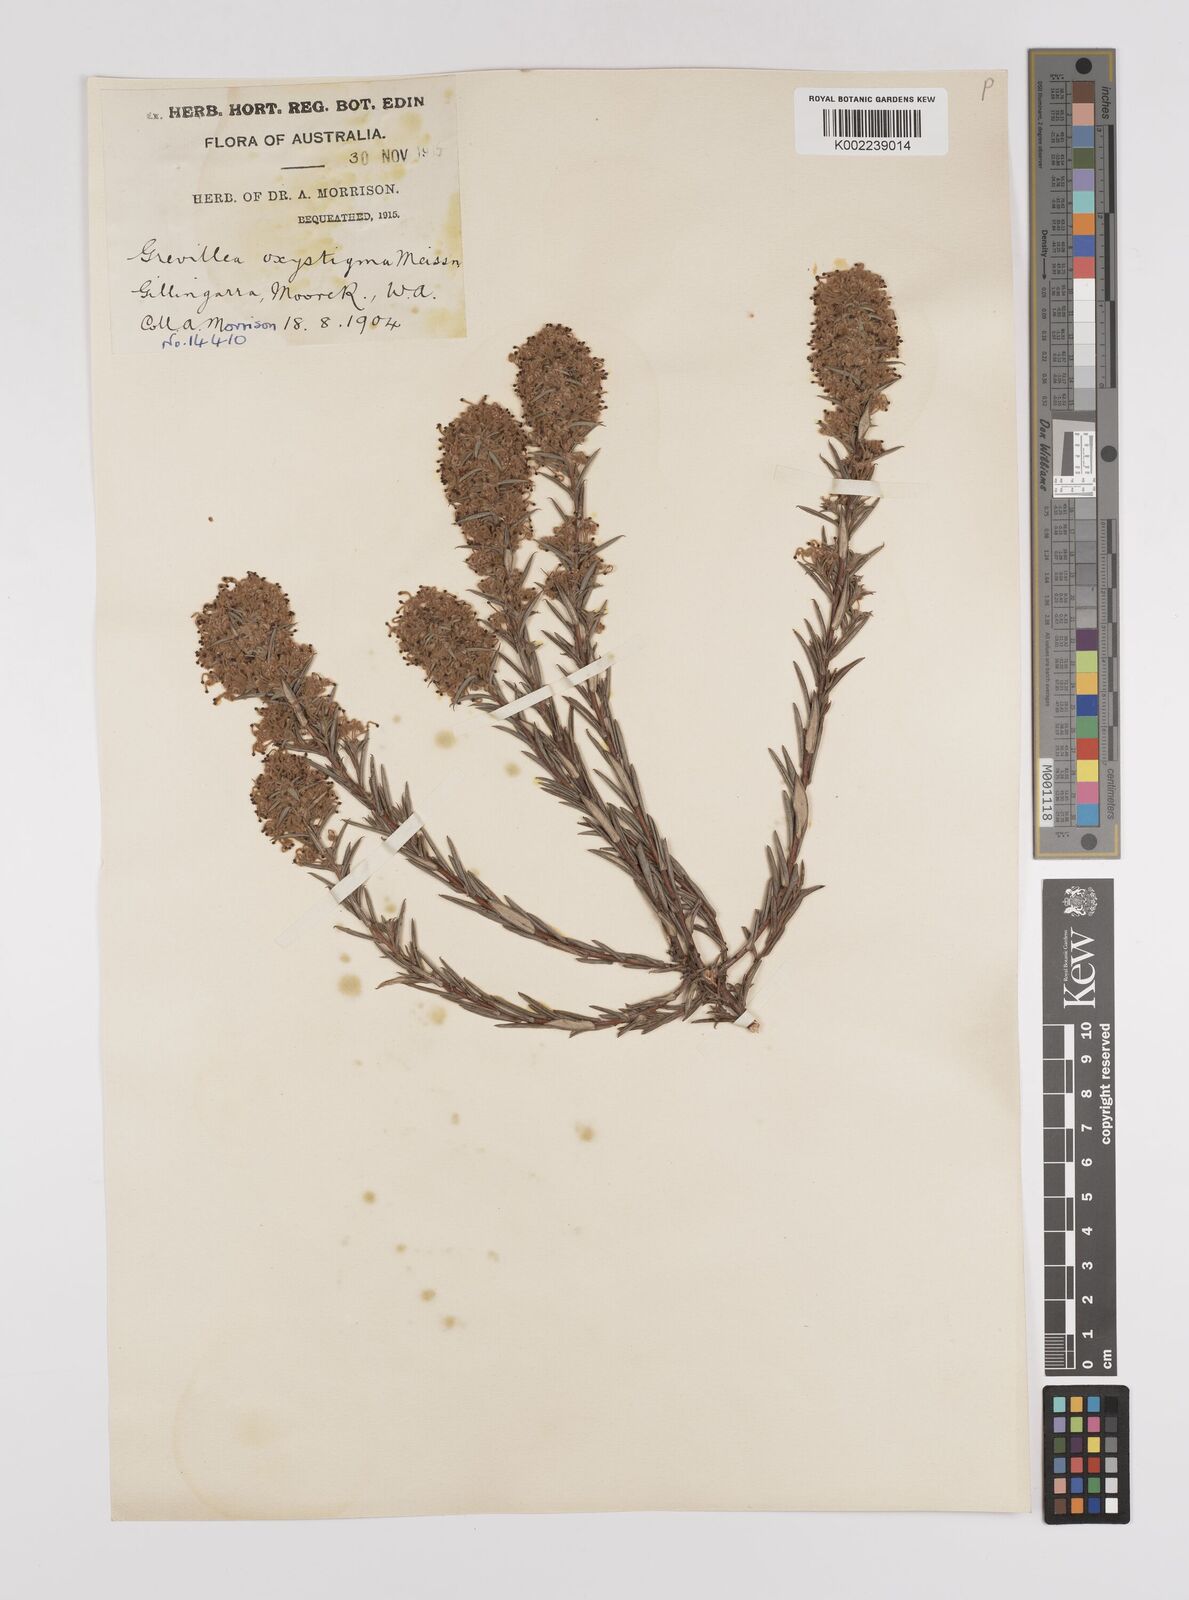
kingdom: Plantae
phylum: Tracheophyta
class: Magnoliopsida
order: Proteales
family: Proteaceae
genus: Grevillea
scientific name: Grevillea pilulifera
